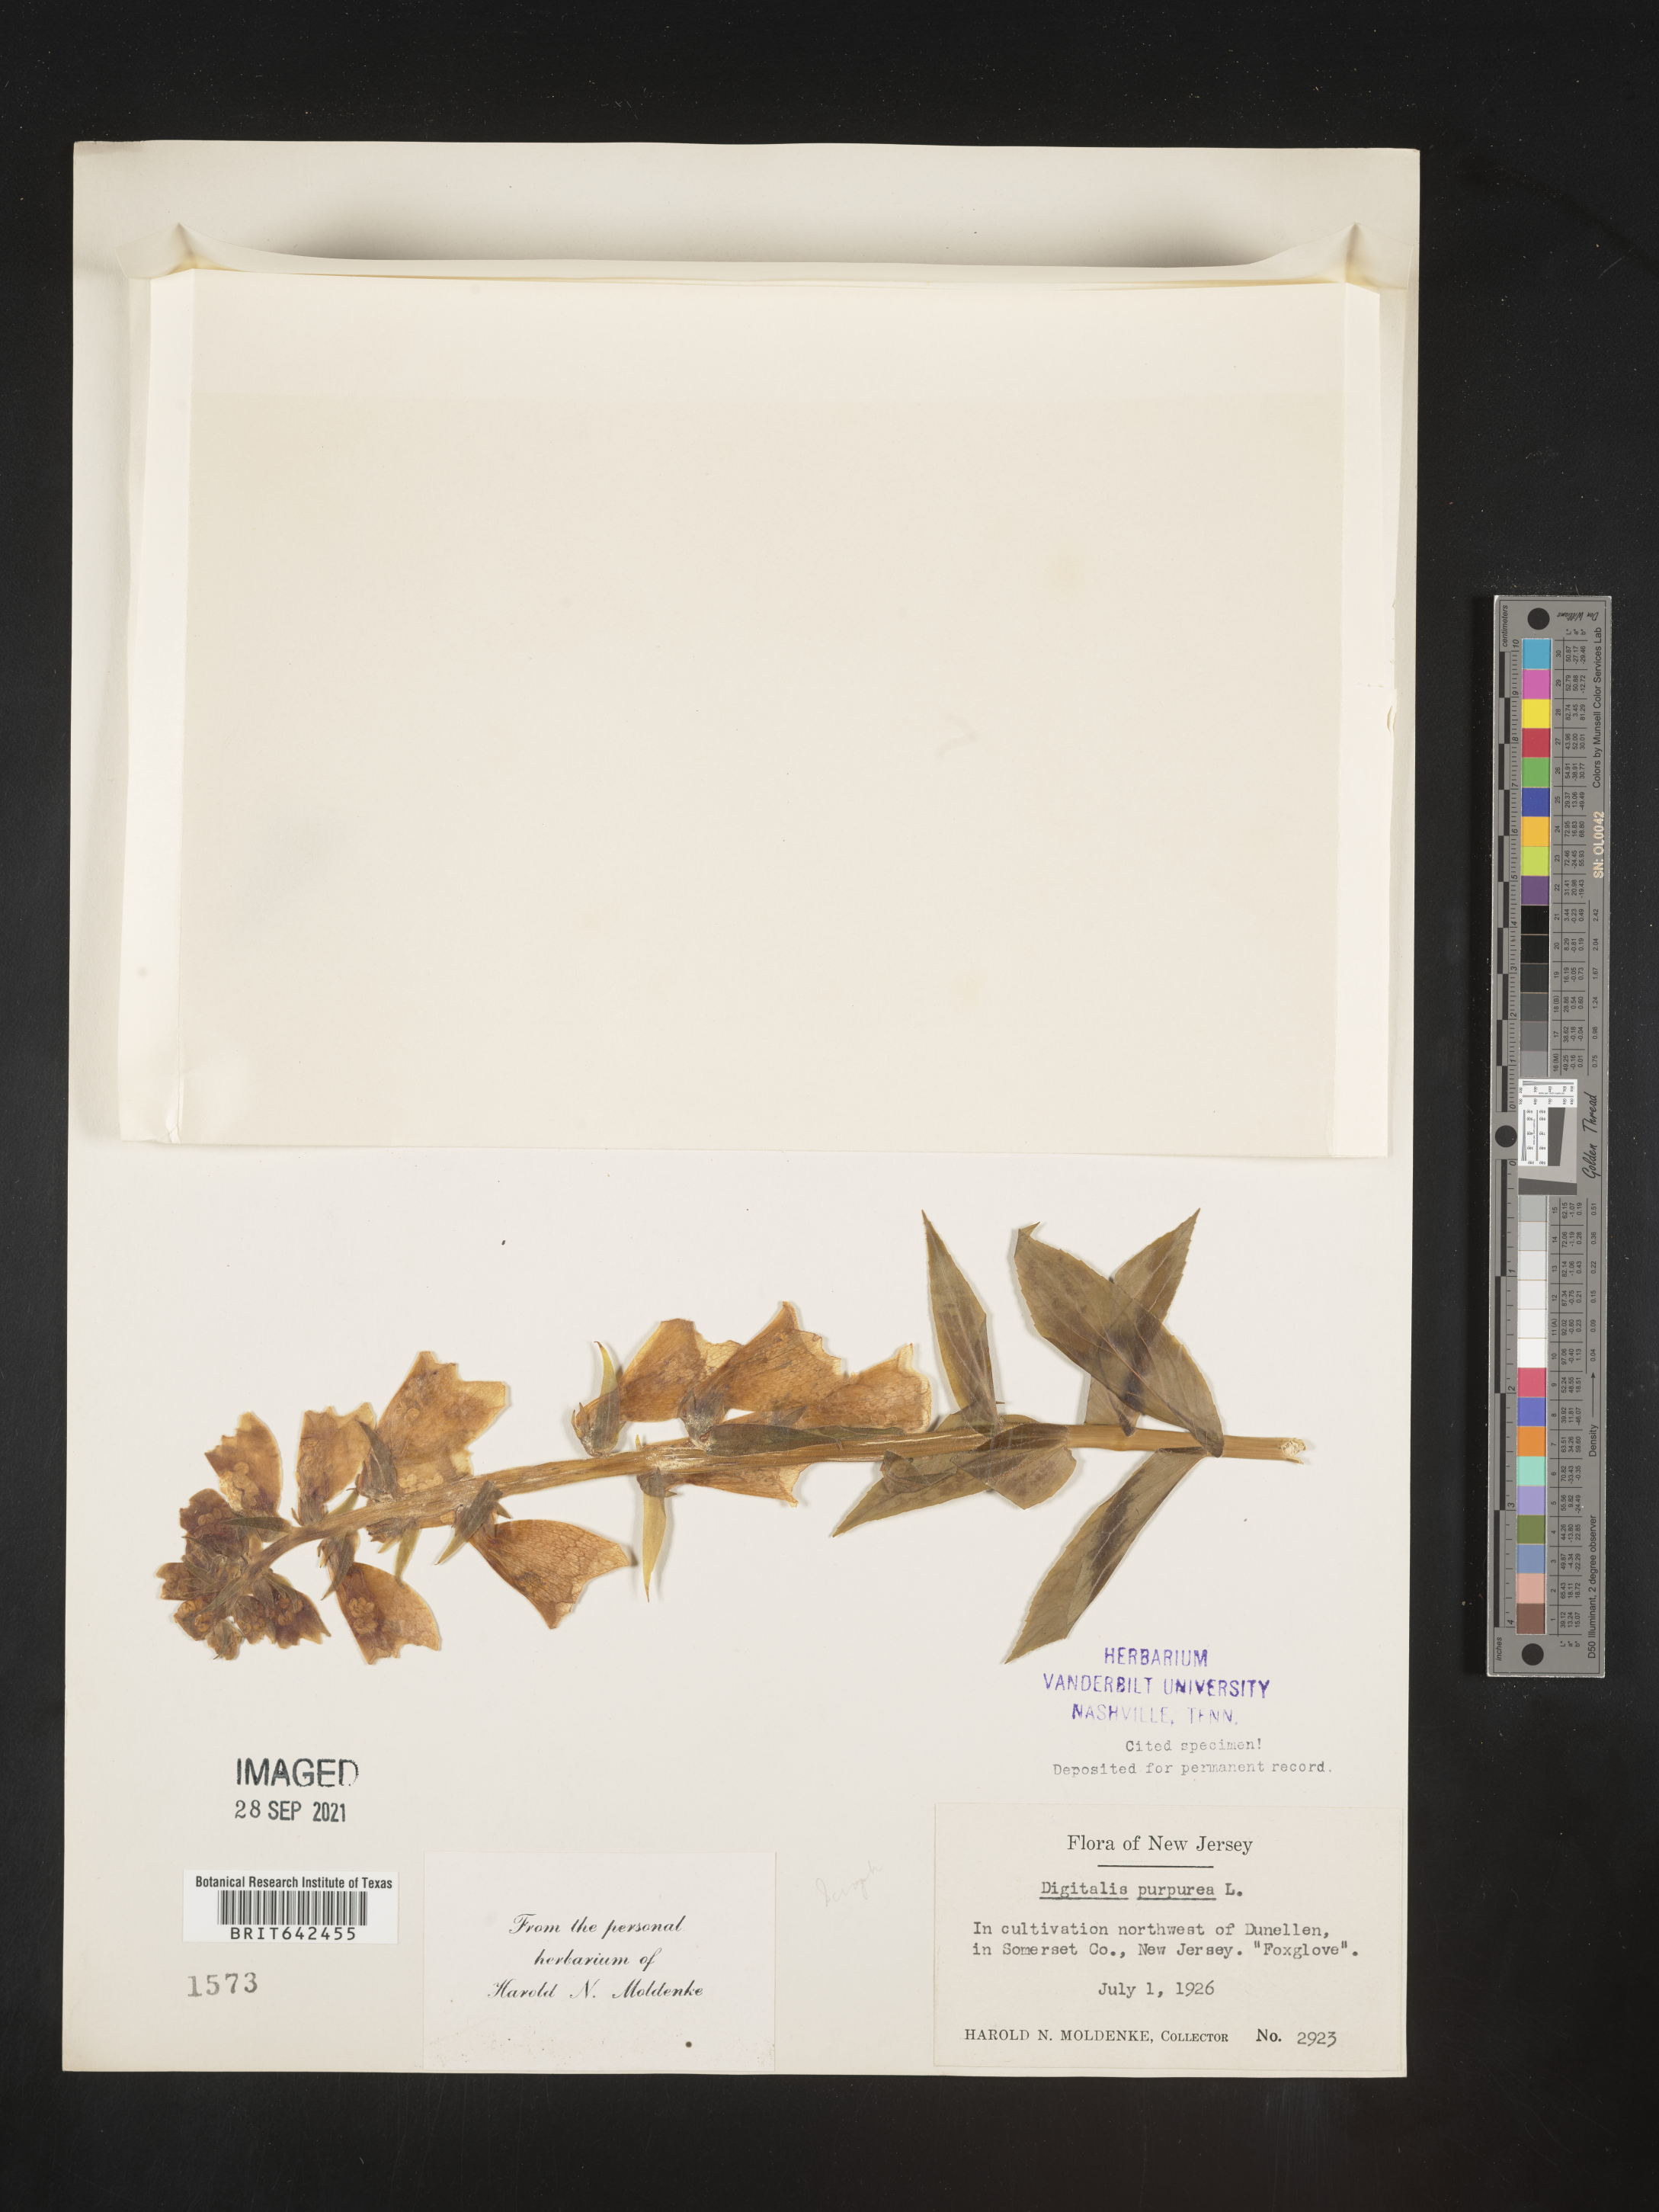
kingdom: Plantae
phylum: Tracheophyta
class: Magnoliopsida
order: Lamiales
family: Plantaginaceae
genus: Digitalis
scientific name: Digitalis
